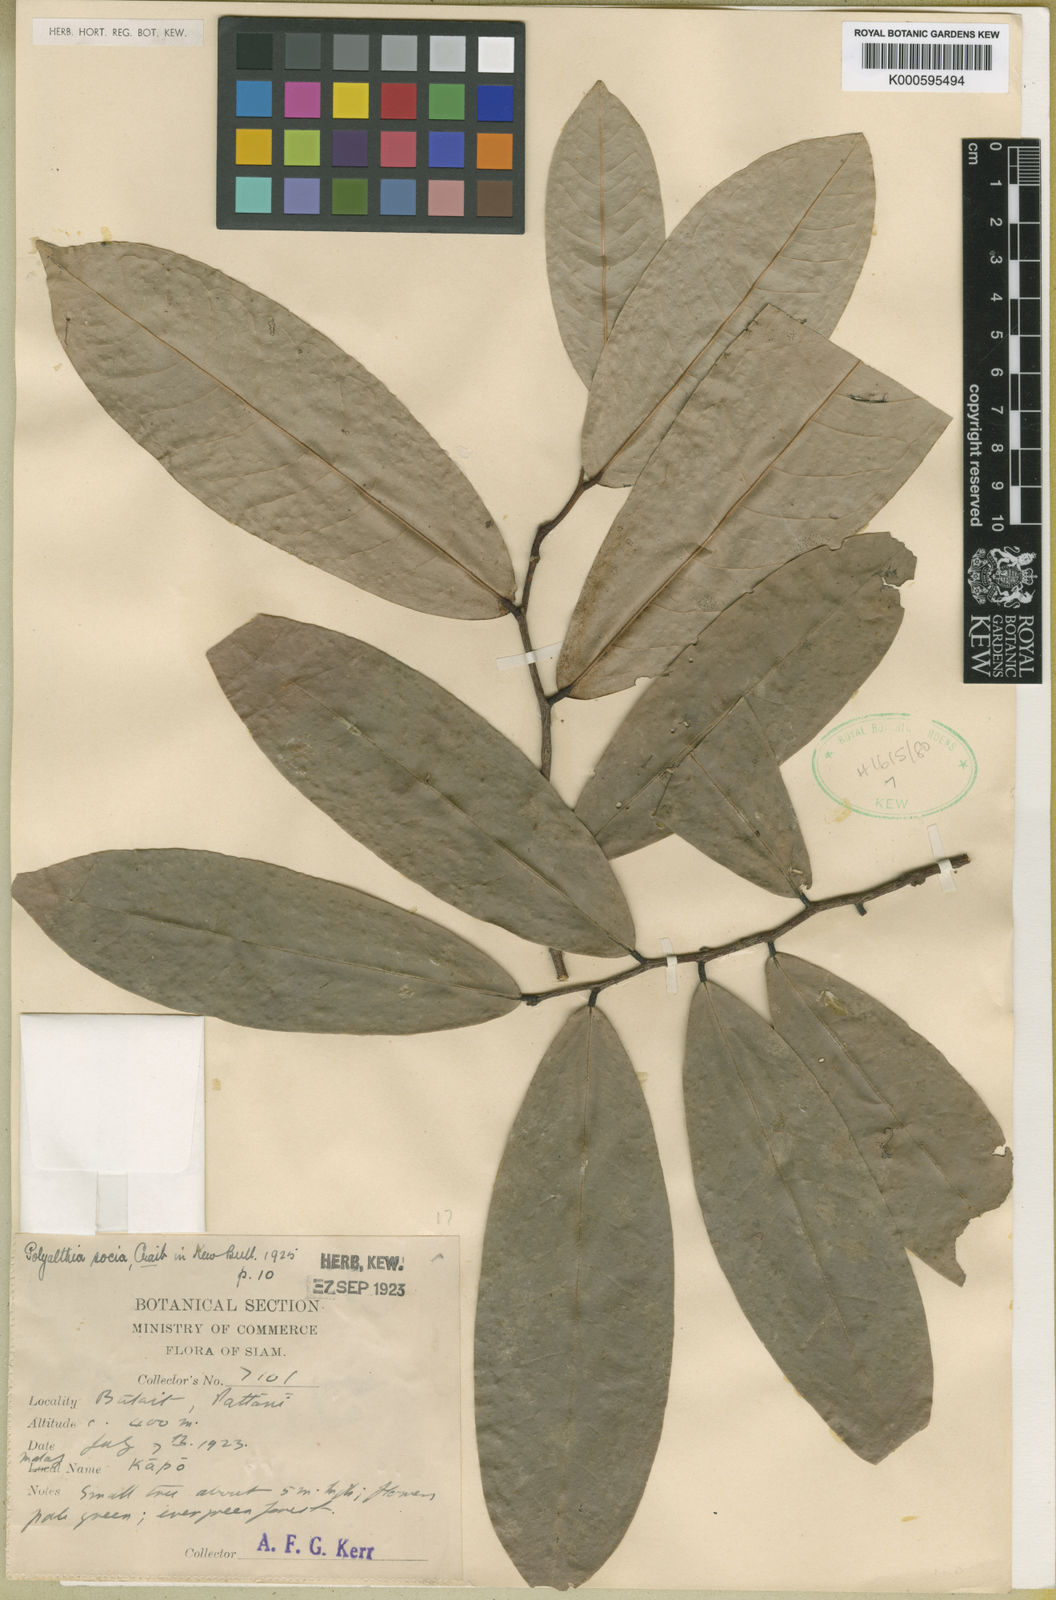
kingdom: Plantae
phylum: Tracheophyta
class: Magnoliopsida
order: Magnoliales
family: Annonaceae
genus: Polyalthia
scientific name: Polyalthia socia
